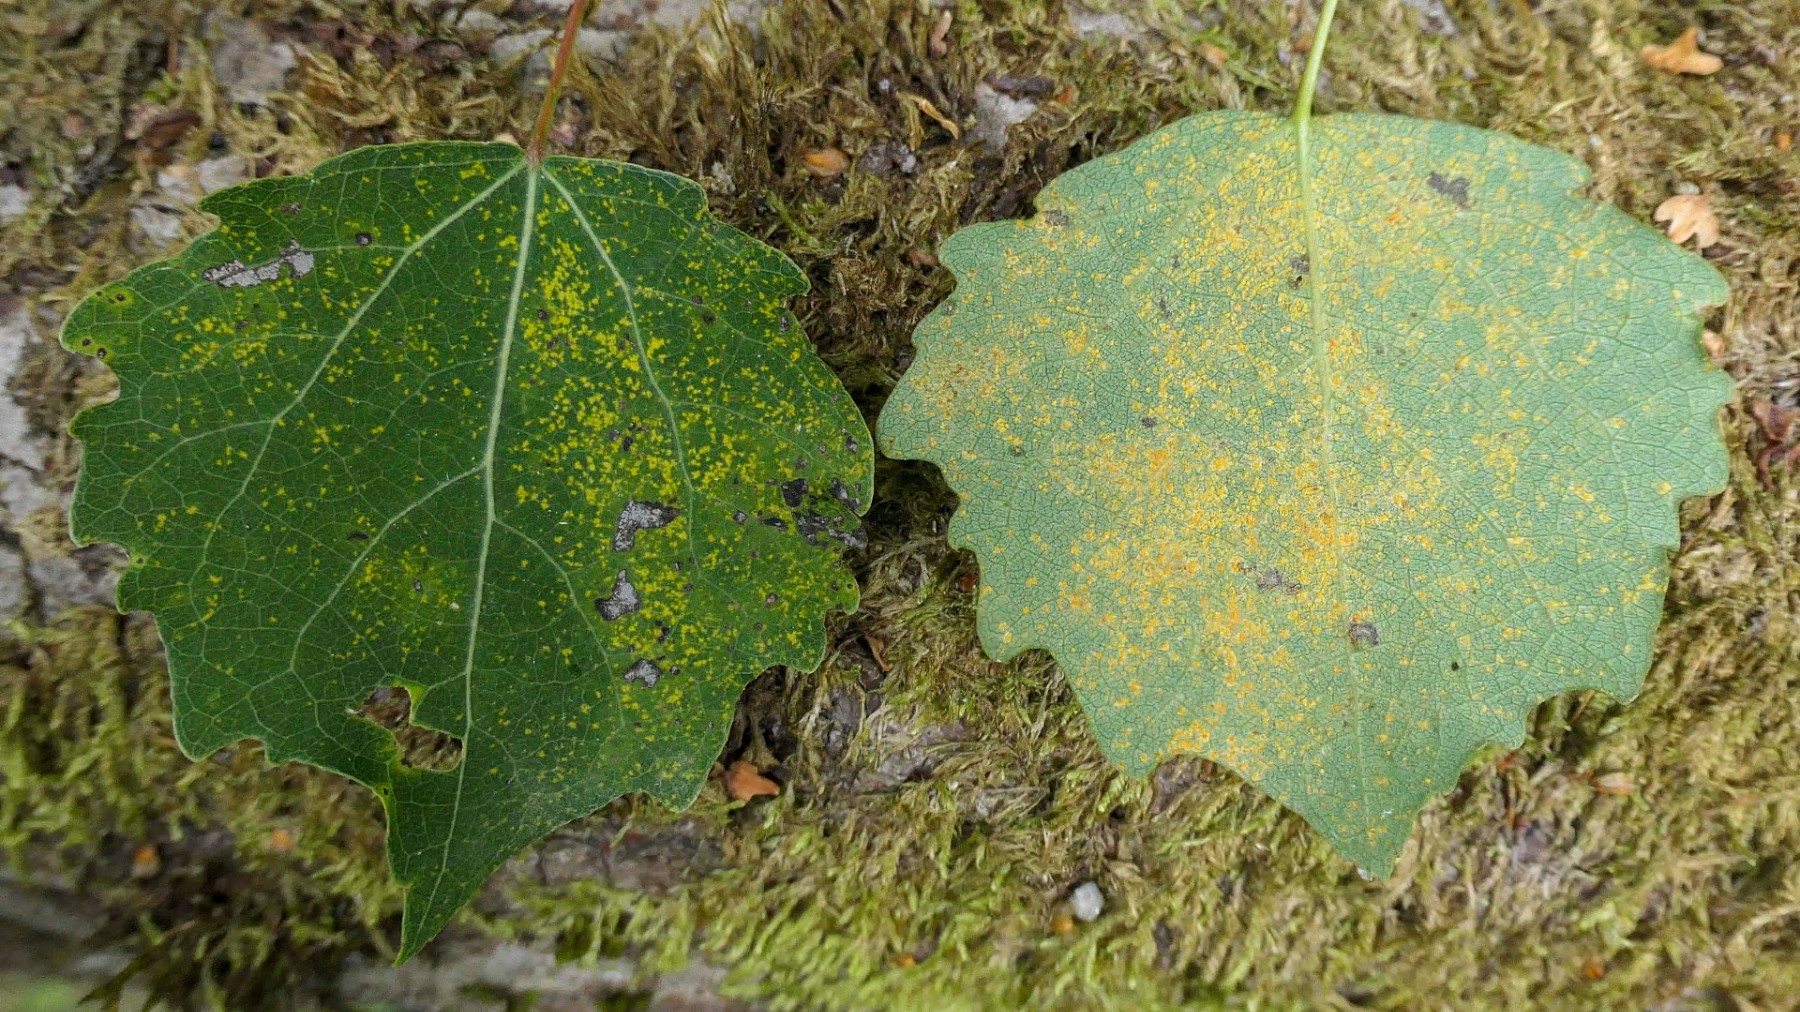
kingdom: Fungi
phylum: Basidiomycota
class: Pucciniomycetes
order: Pucciniales
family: Melampsoraceae
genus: Melampsora
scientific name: Melampsora
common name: skorperust
